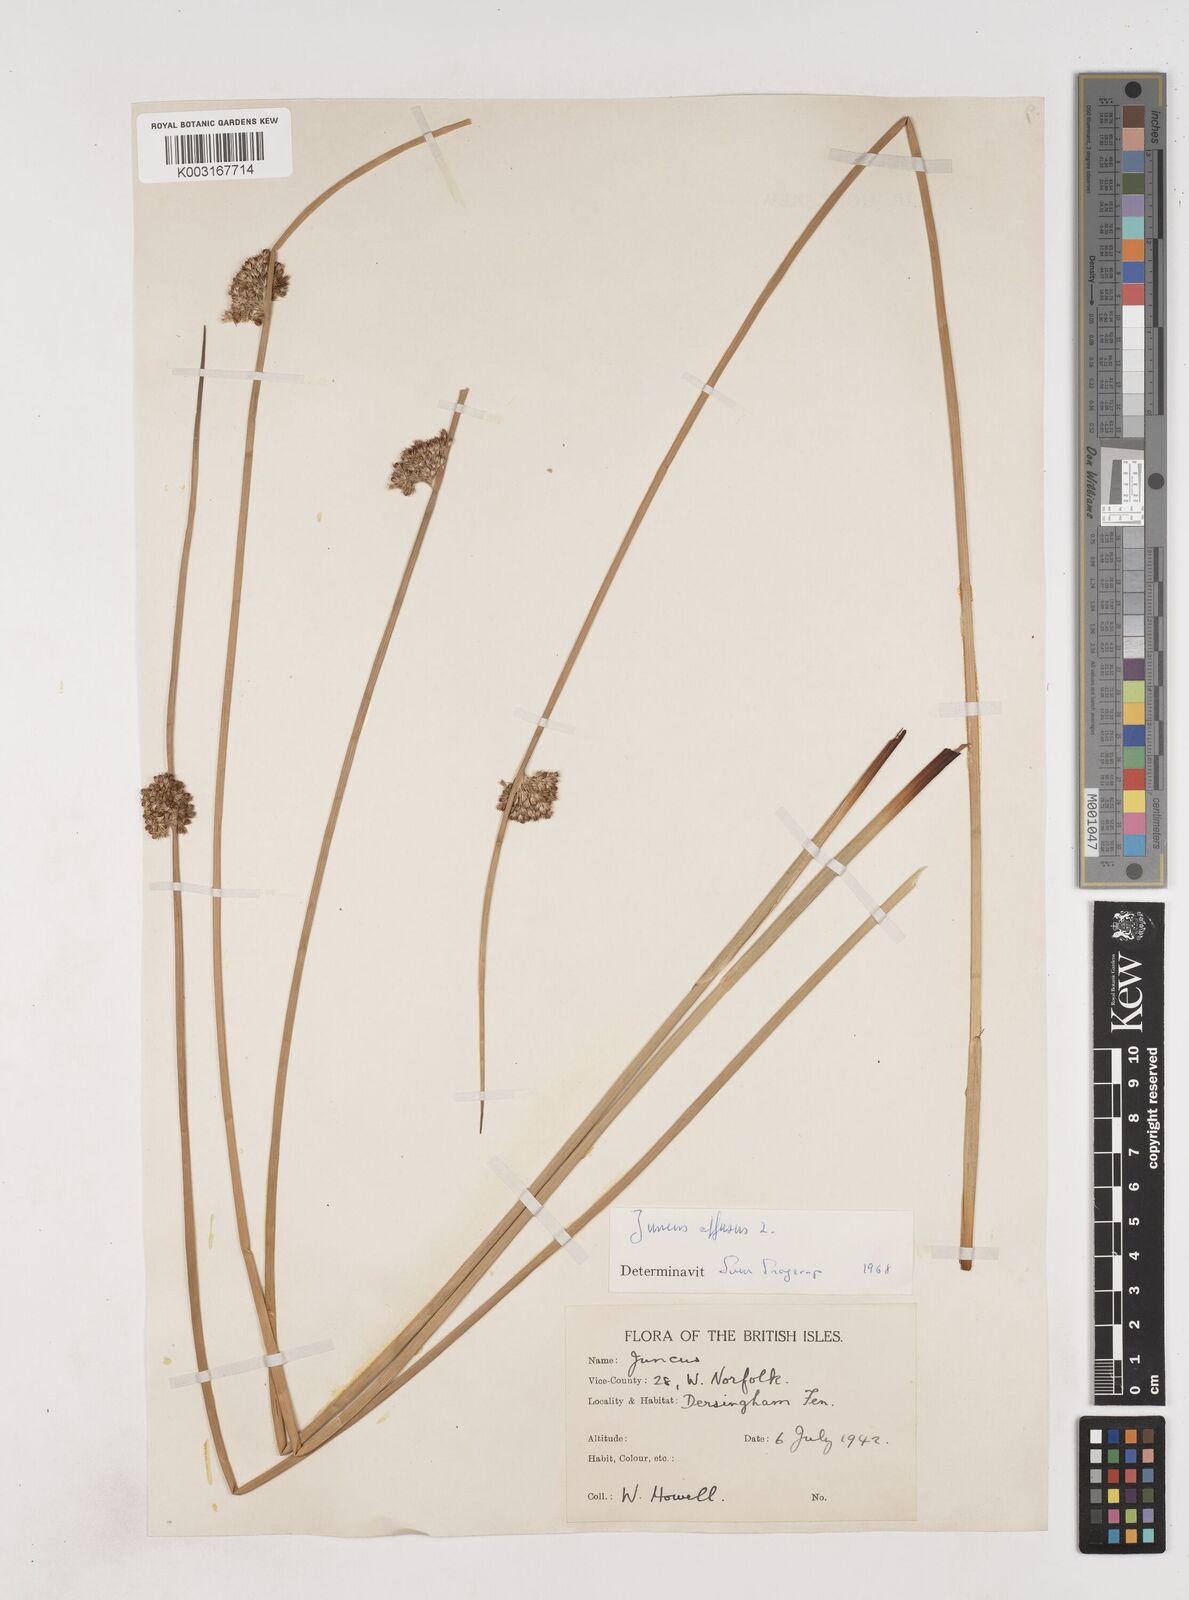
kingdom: Plantae
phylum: Tracheophyta
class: Liliopsida
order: Poales
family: Juncaceae
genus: Juncus
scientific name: Juncus effusus
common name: Soft rush
